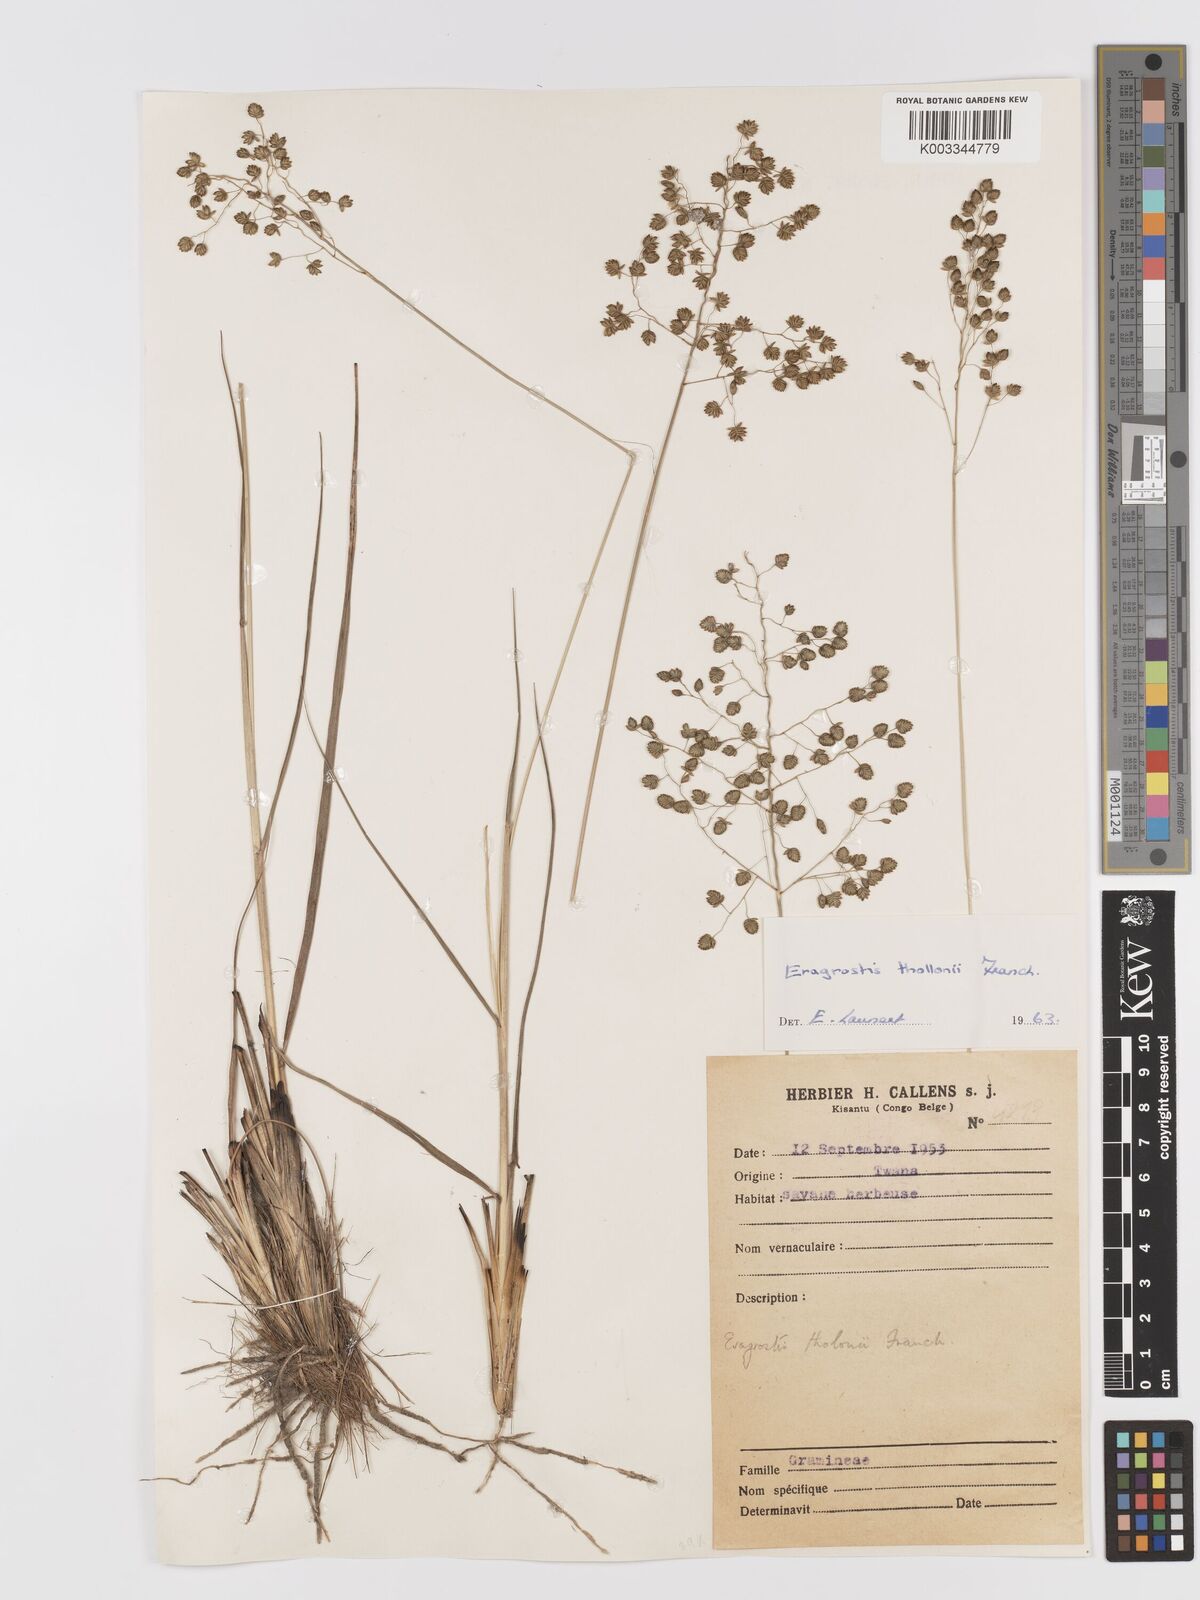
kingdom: Plantae
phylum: Tracheophyta
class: Liliopsida
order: Poales
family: Poaceae
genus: Eragrostis
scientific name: Eragrostis thollonii
